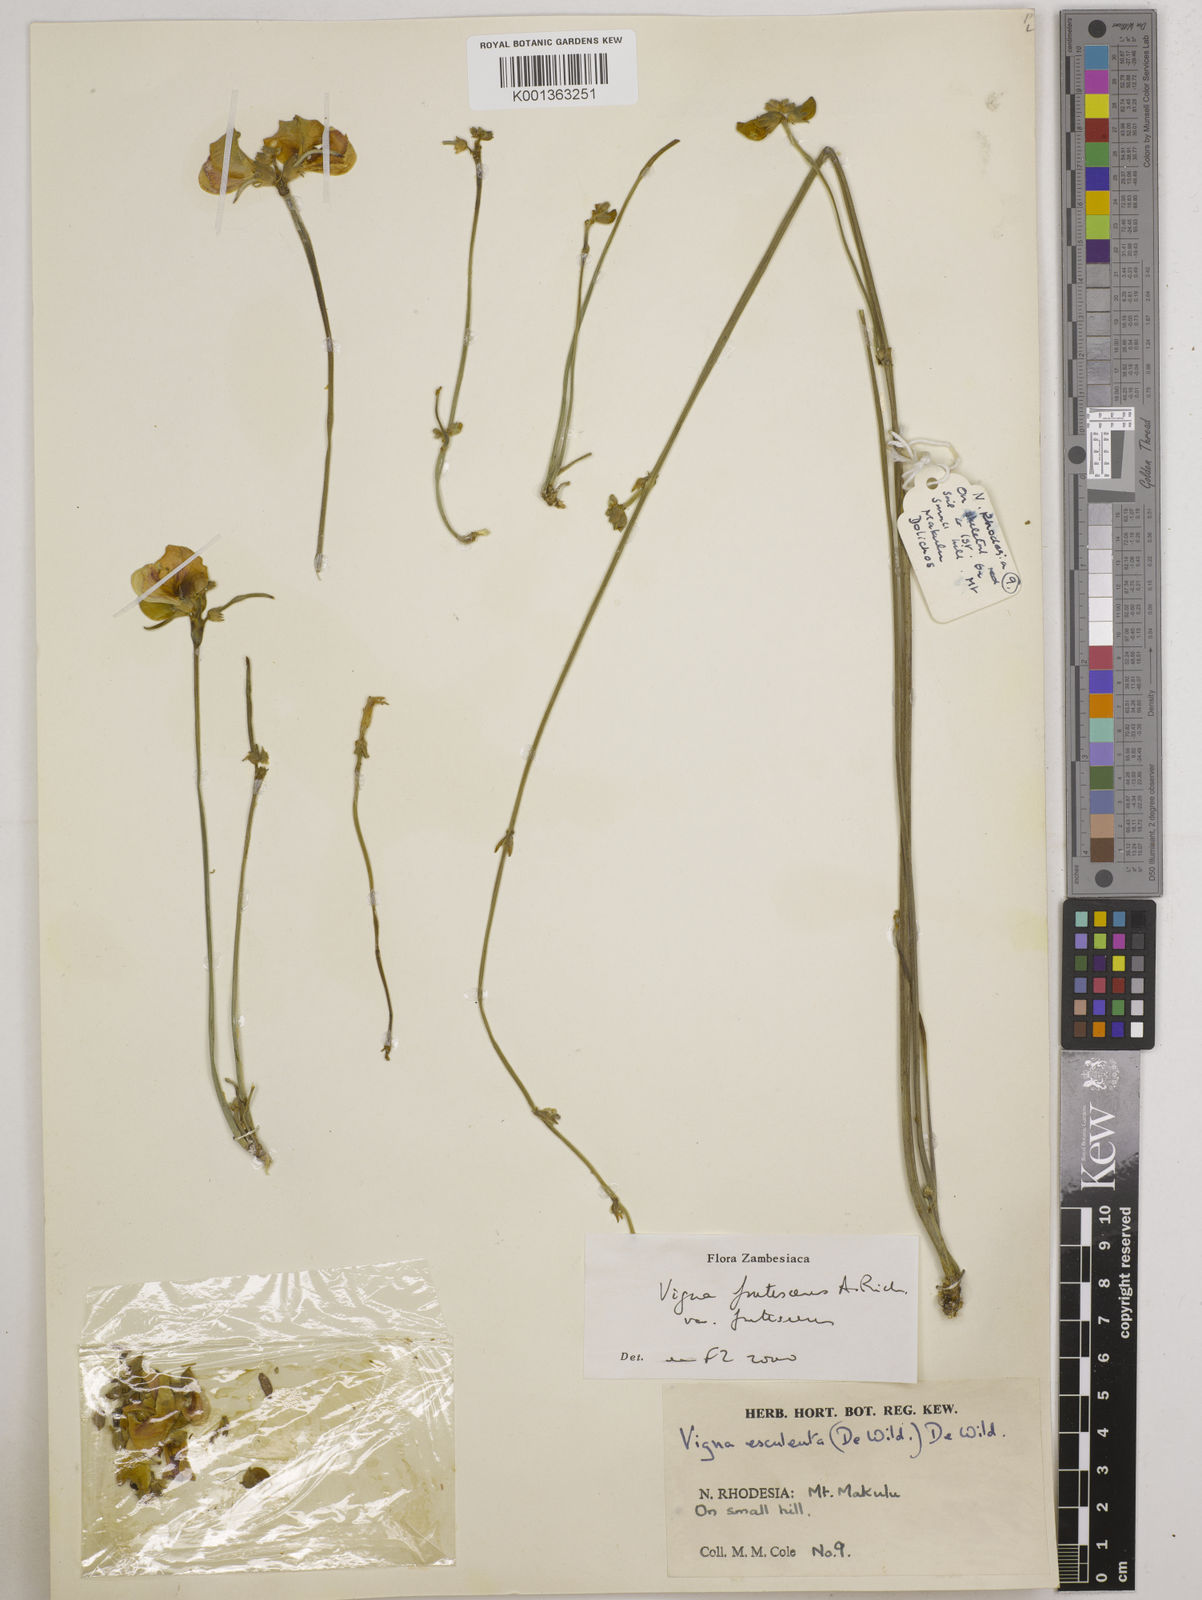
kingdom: Plantae
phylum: Tracheophyta
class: Magnoliopsida
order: Fabales
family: Fabaceae
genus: Vigna
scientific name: Vigna
